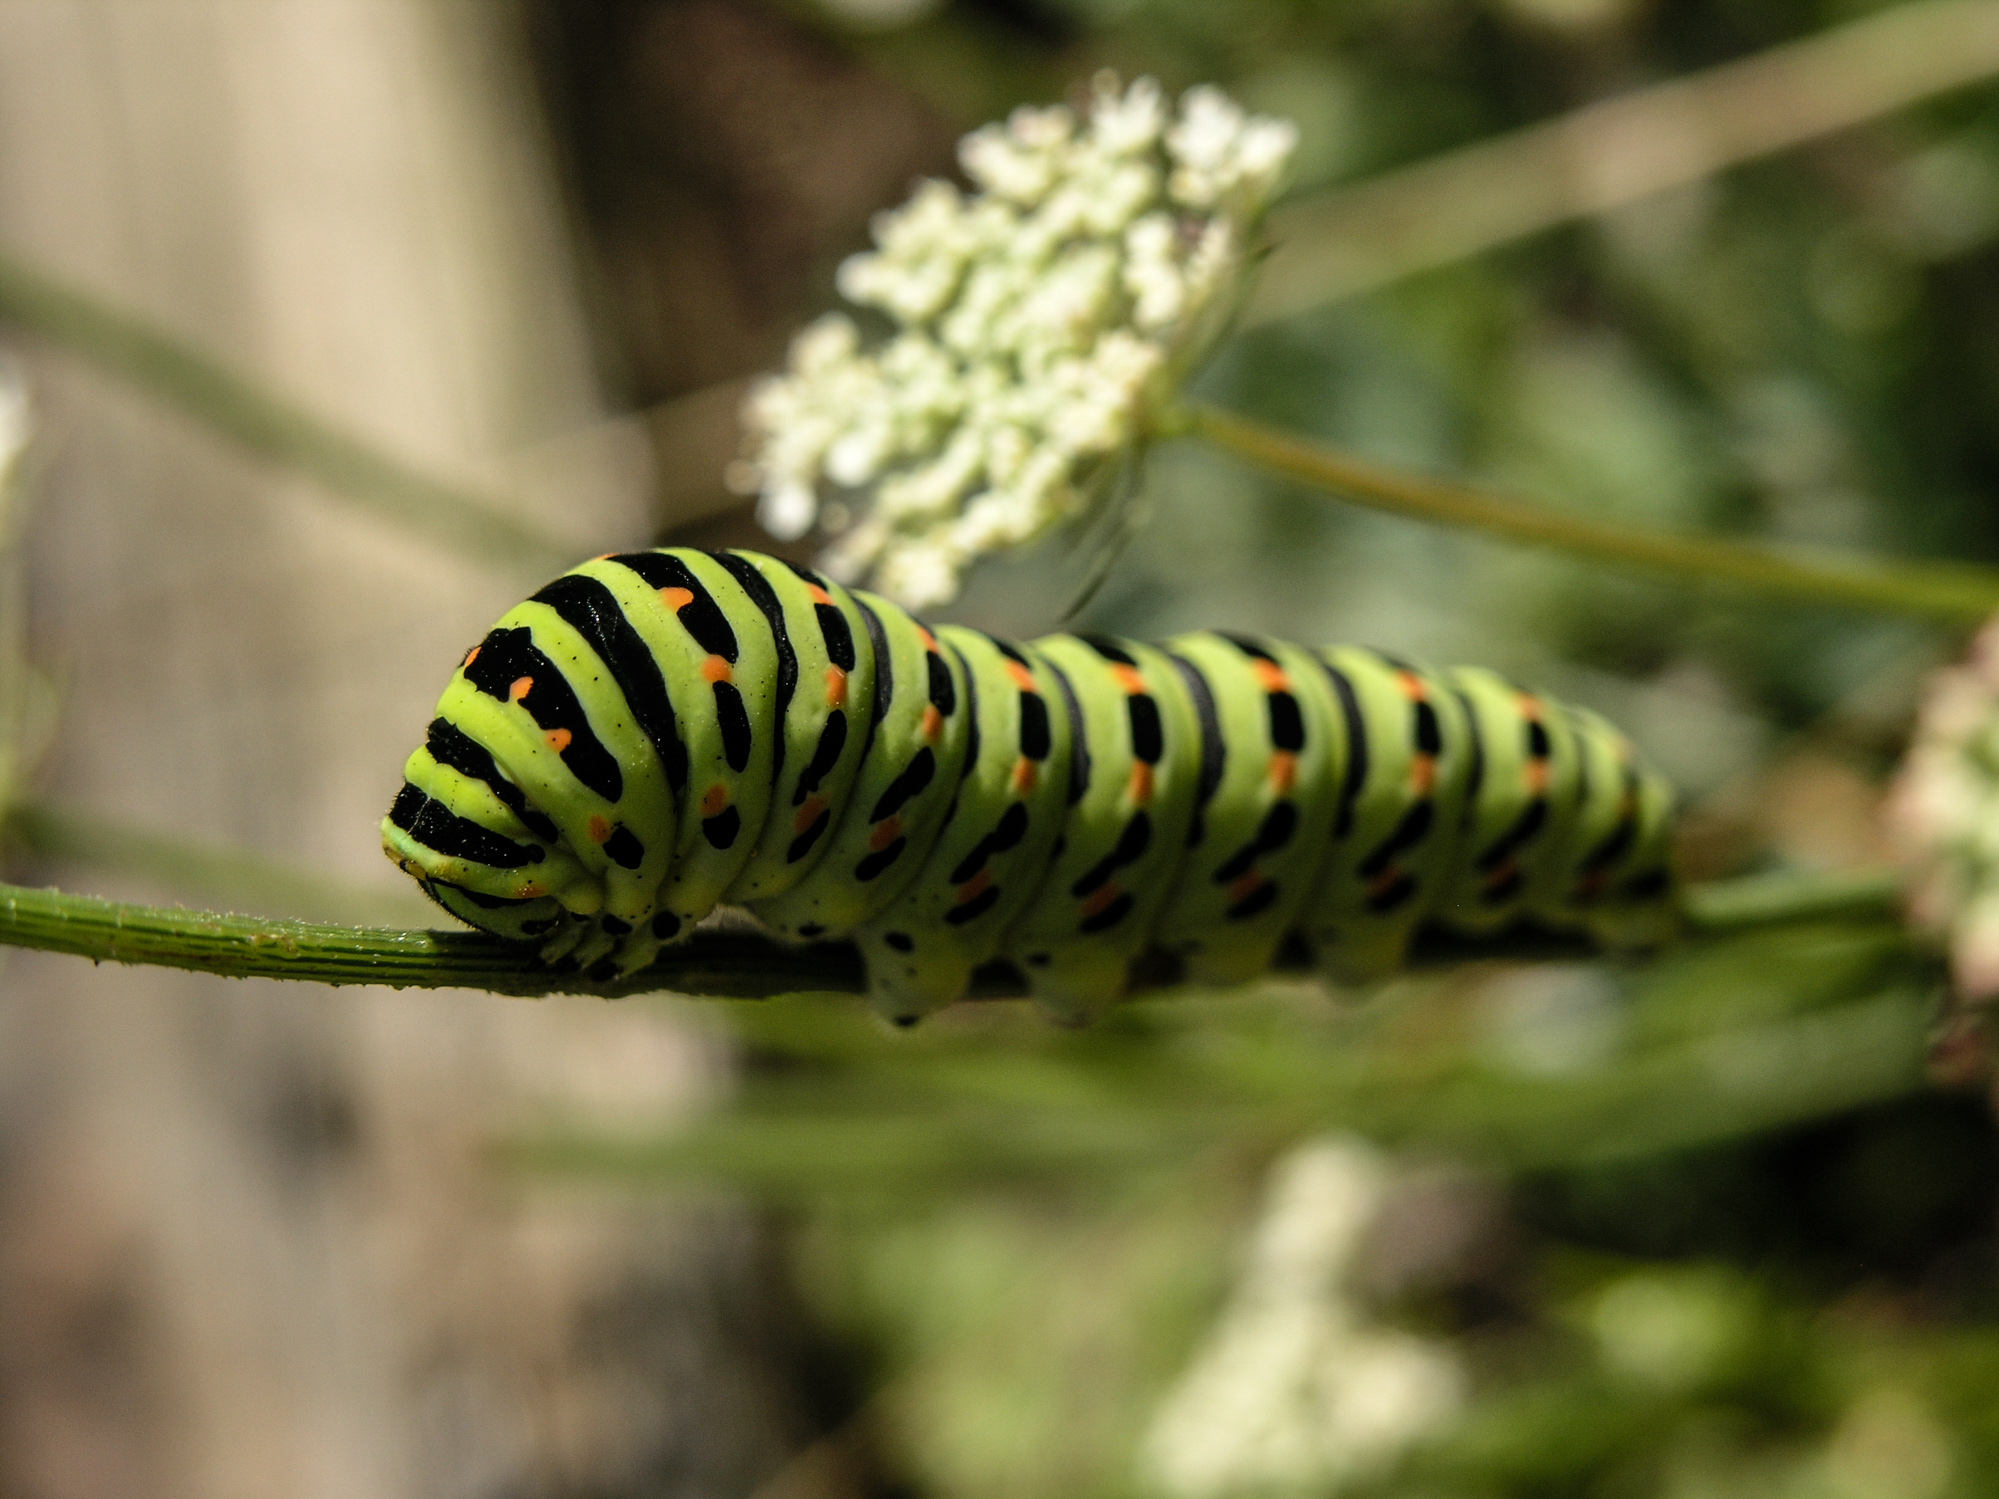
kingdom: Animalia
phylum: Arthropoda
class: Insecta
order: Lepidoptera
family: Papilionidae
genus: Papilio
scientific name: Papilio machaon
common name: Swallowtail
